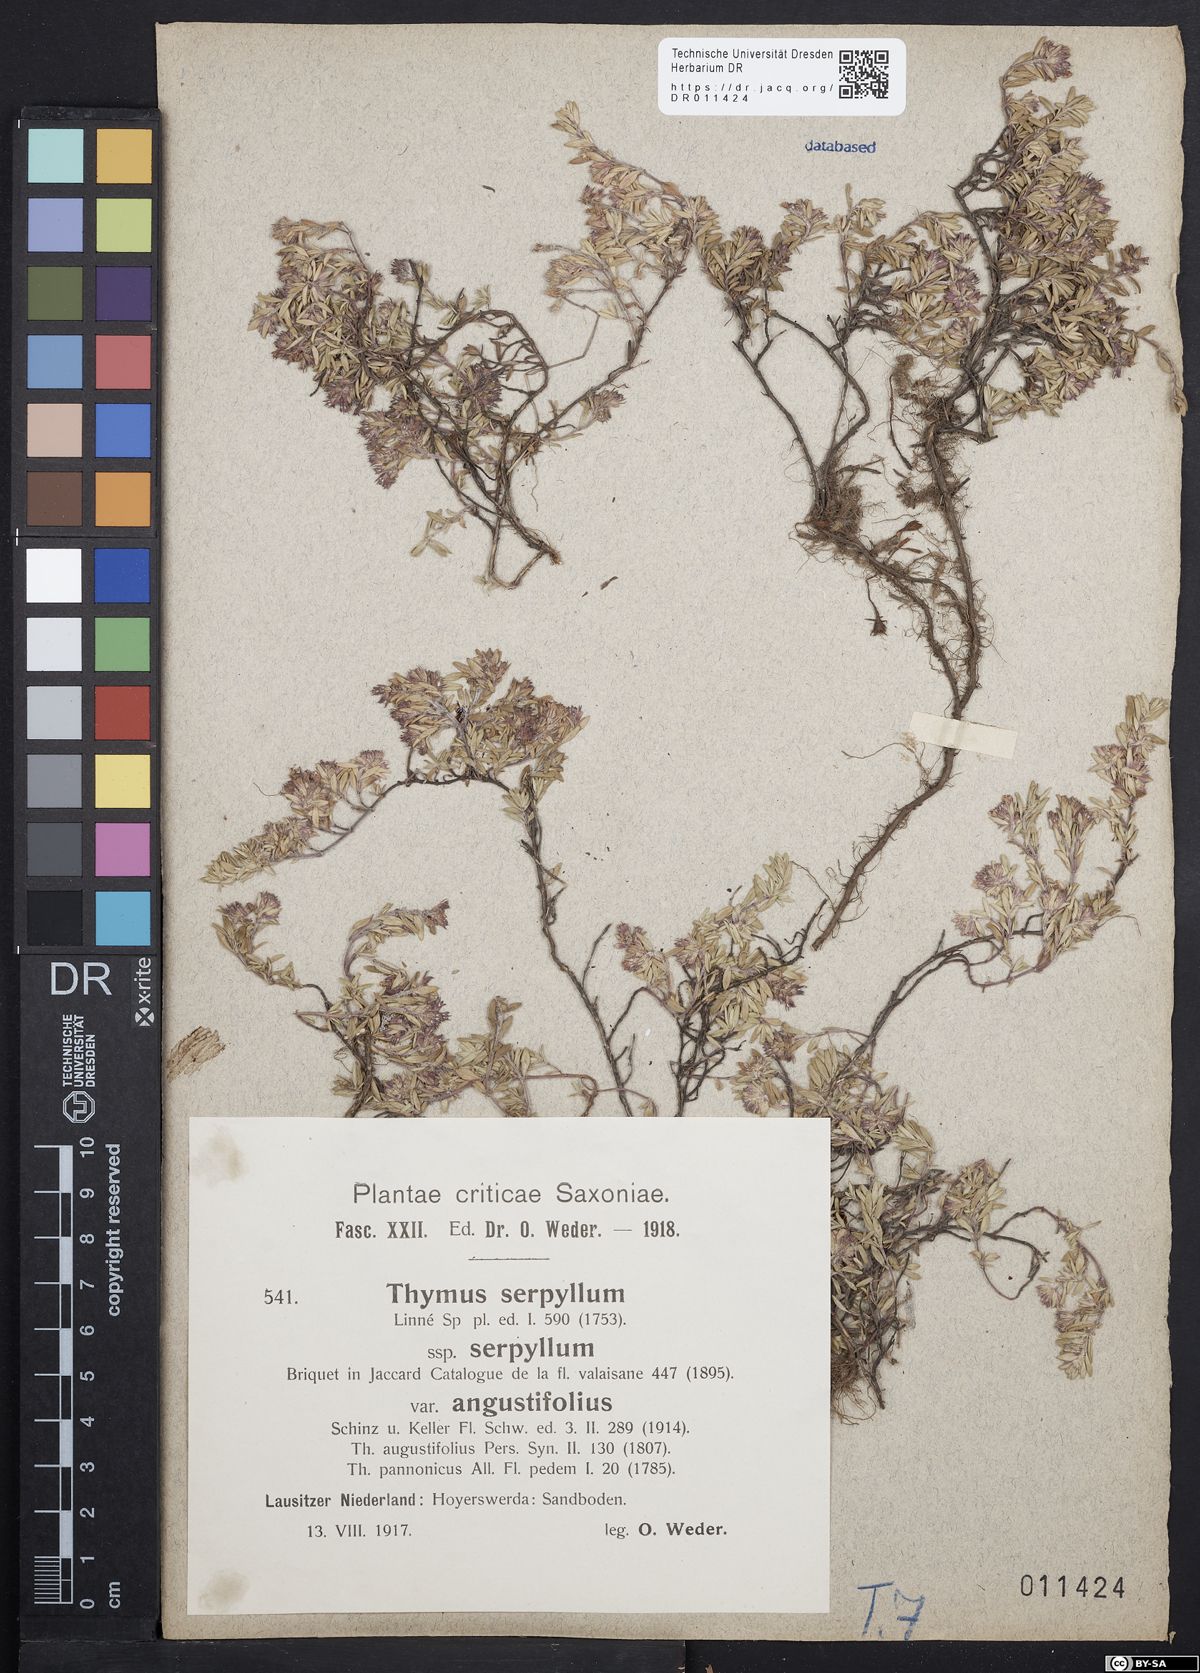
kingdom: Plantae
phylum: Tracheophyta
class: Magnoliopsida
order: Lamiales
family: Lamiaceae
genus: Thymus
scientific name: Thymus serpyllum
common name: Breckland thyme
